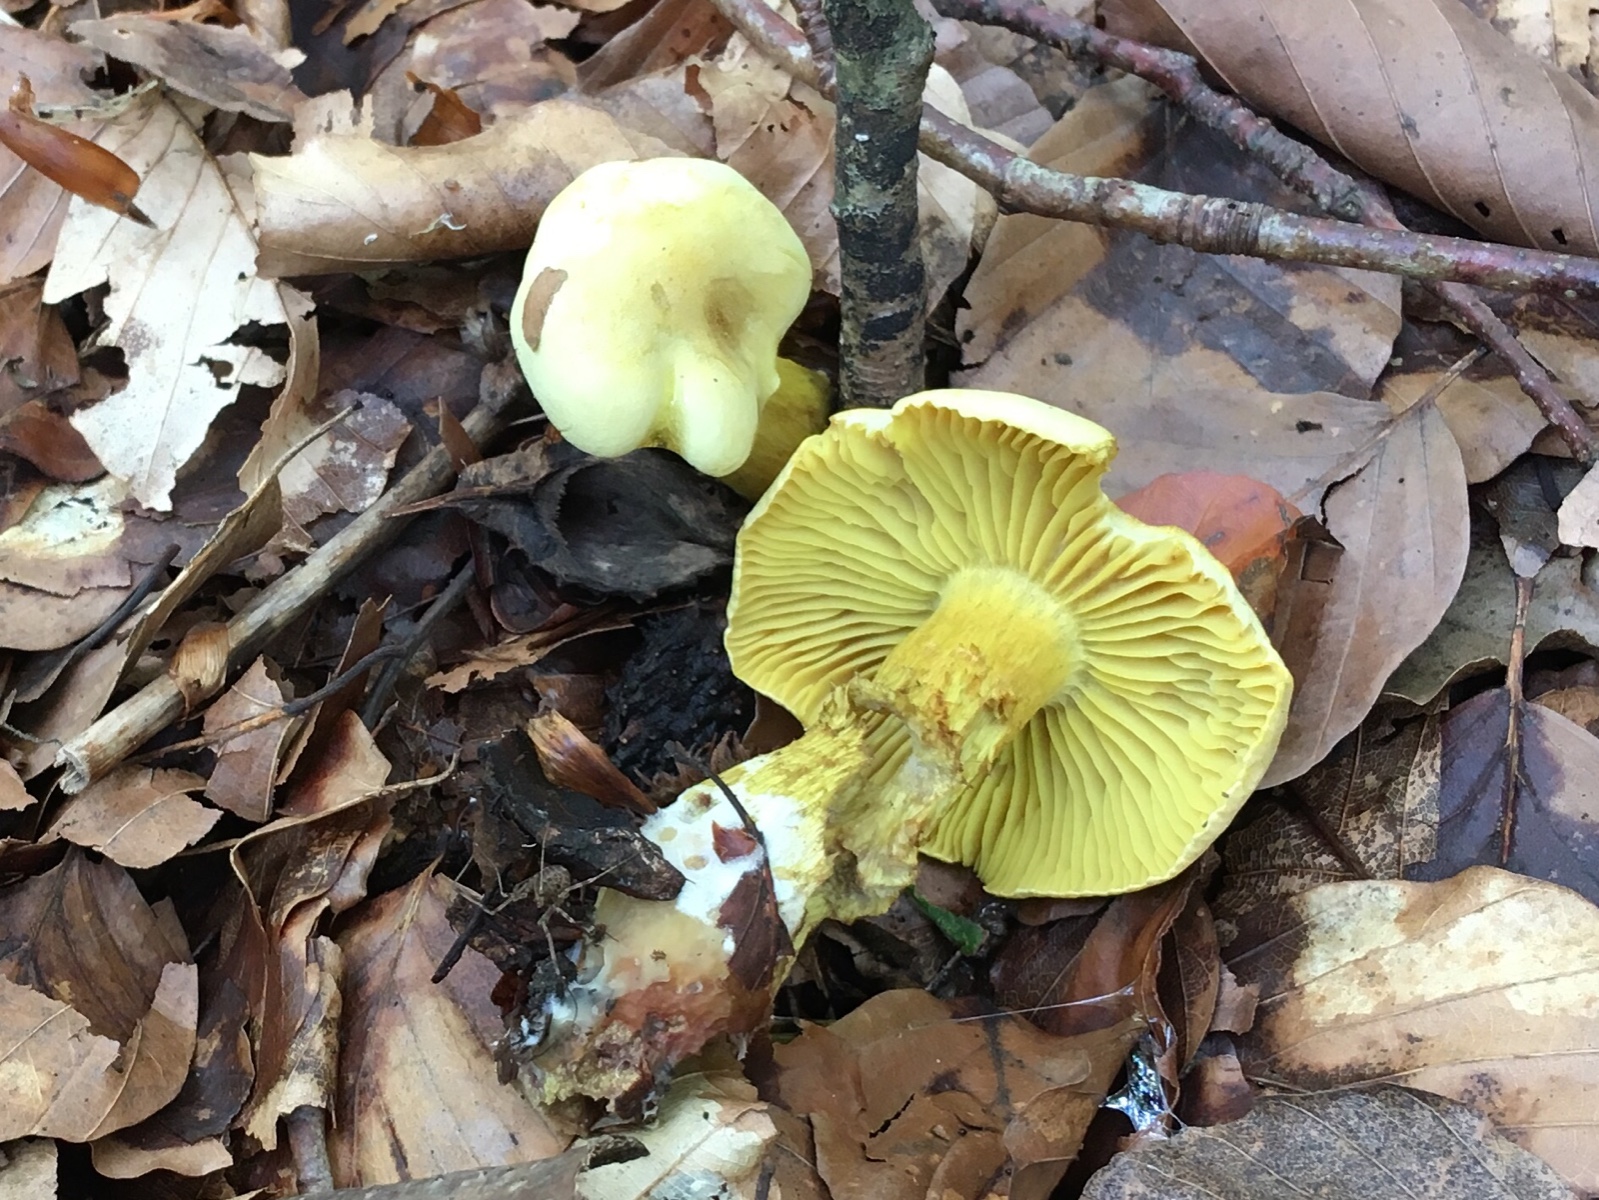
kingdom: Fungi
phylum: Basidiomycota
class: Agaricomycetes
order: Agaricales
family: Tricholomataceae
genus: Tricholoma
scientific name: Tricholoma sulphureum
